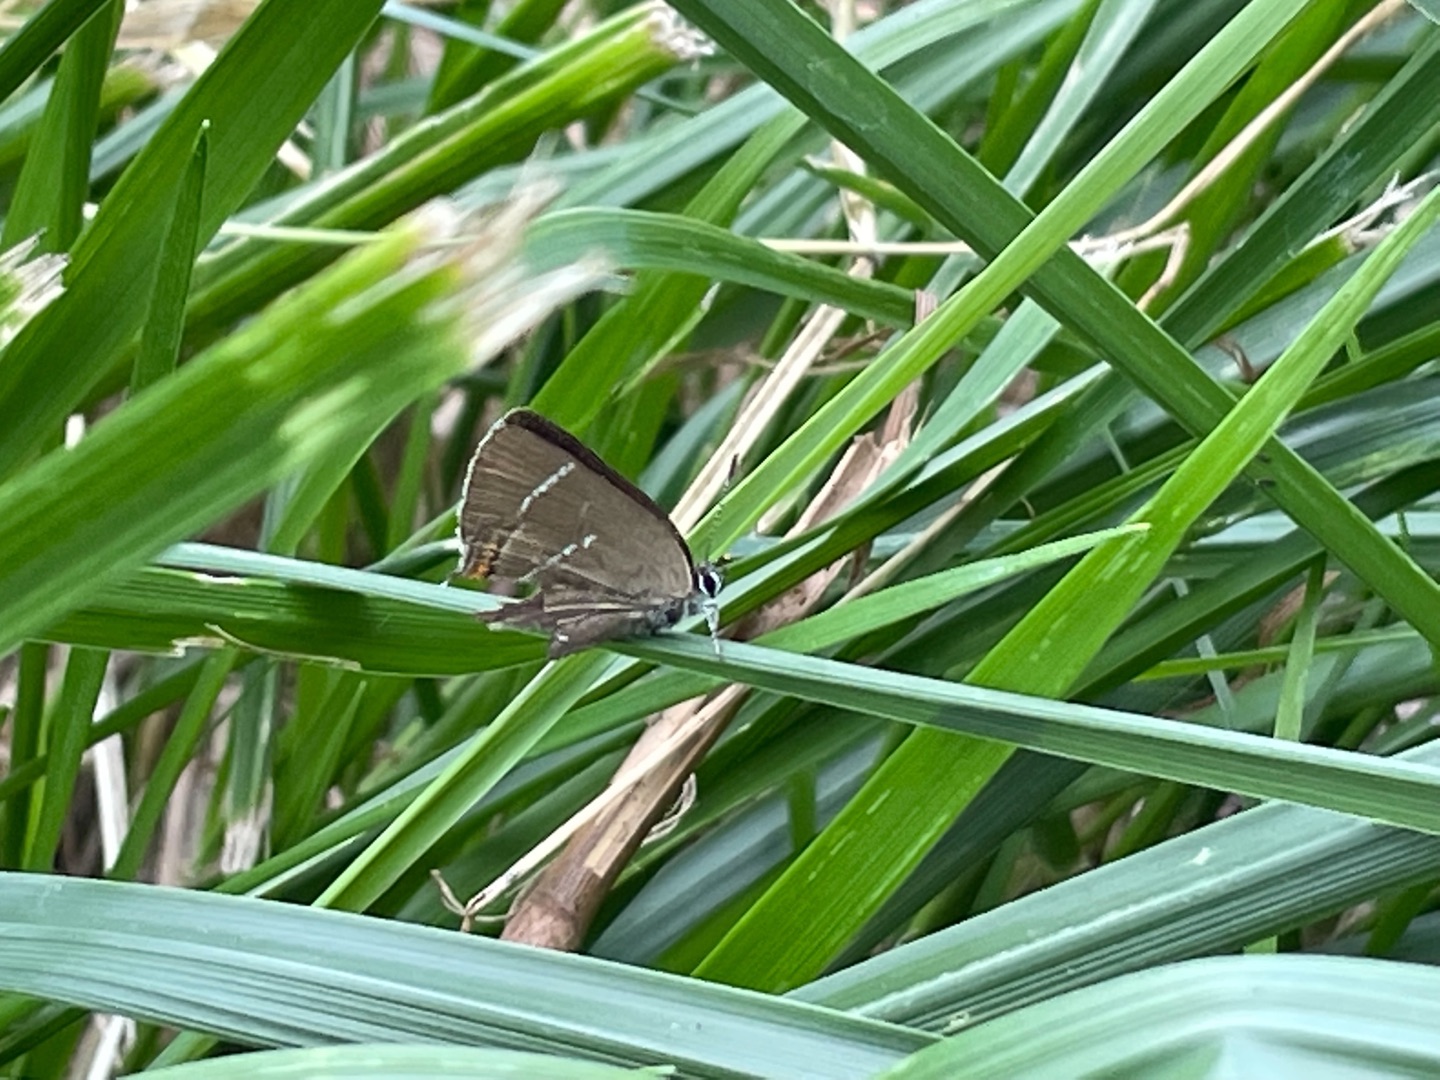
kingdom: Animalia
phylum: Arthropoda
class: Insecta
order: Lepidoptera
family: Lycaenidae
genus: Satyrium
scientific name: Satyrium w-album
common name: Det hvide W
